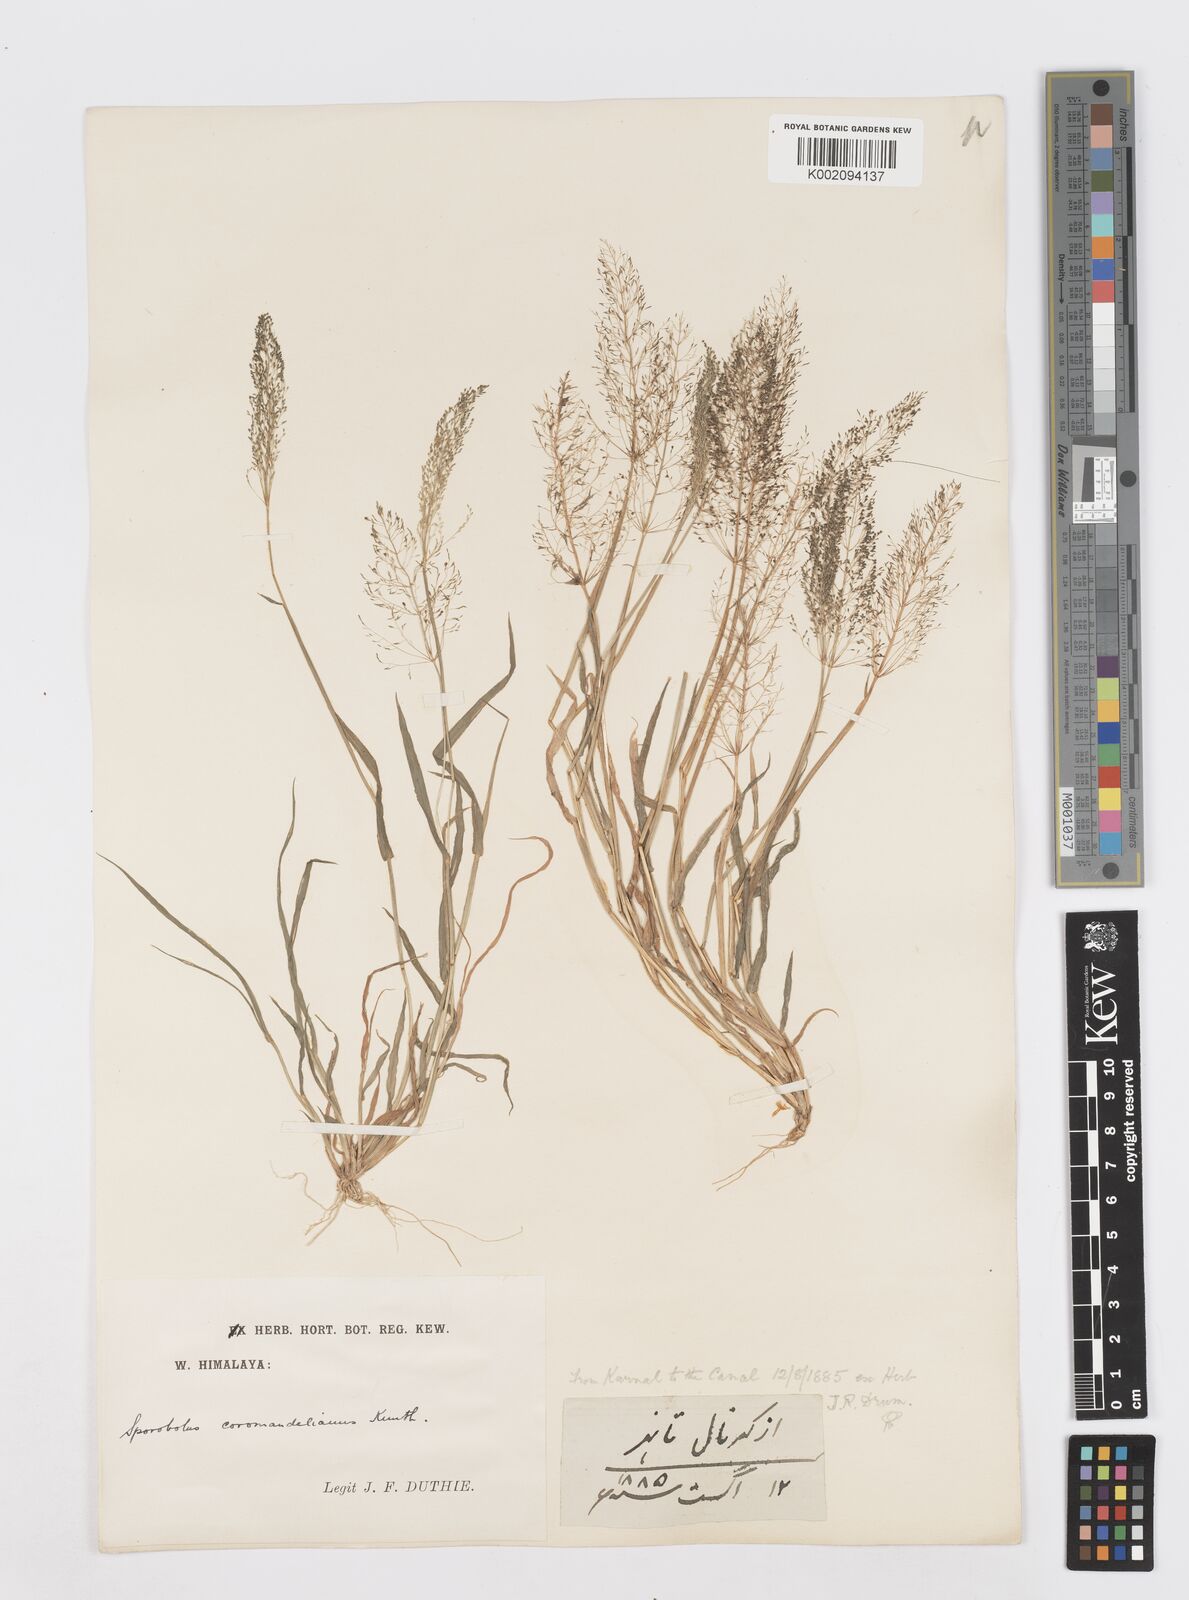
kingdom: Plantae
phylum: Tracheophyta
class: Liliopsida
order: Poales
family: Poaceae
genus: Sporobolus
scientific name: Sporobolus coromandelianus
